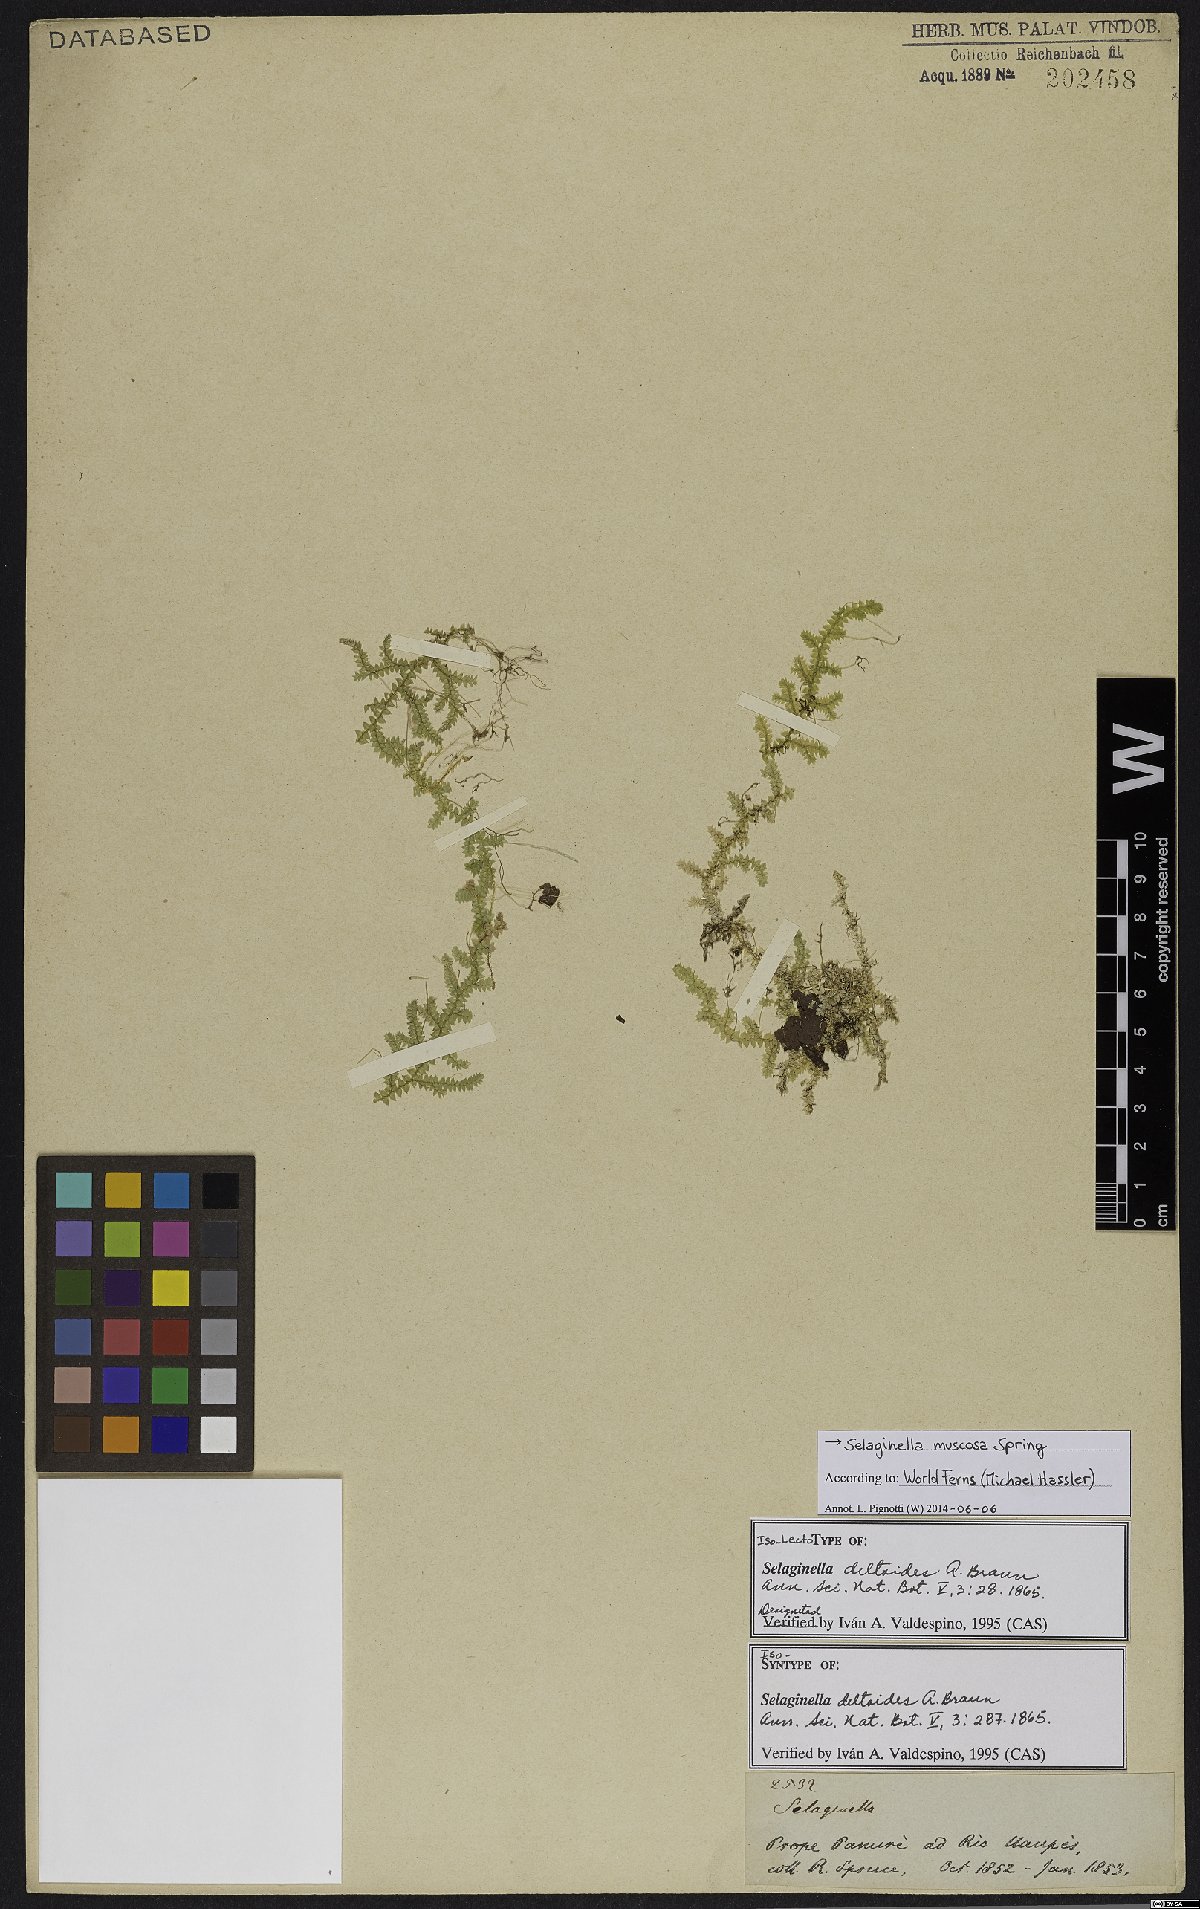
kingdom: Plantae
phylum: Tracheophyta
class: Lycopodiopsida
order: Selaginellales
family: Selaginellaceae
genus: Selaginella
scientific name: Selaginella muscosa
